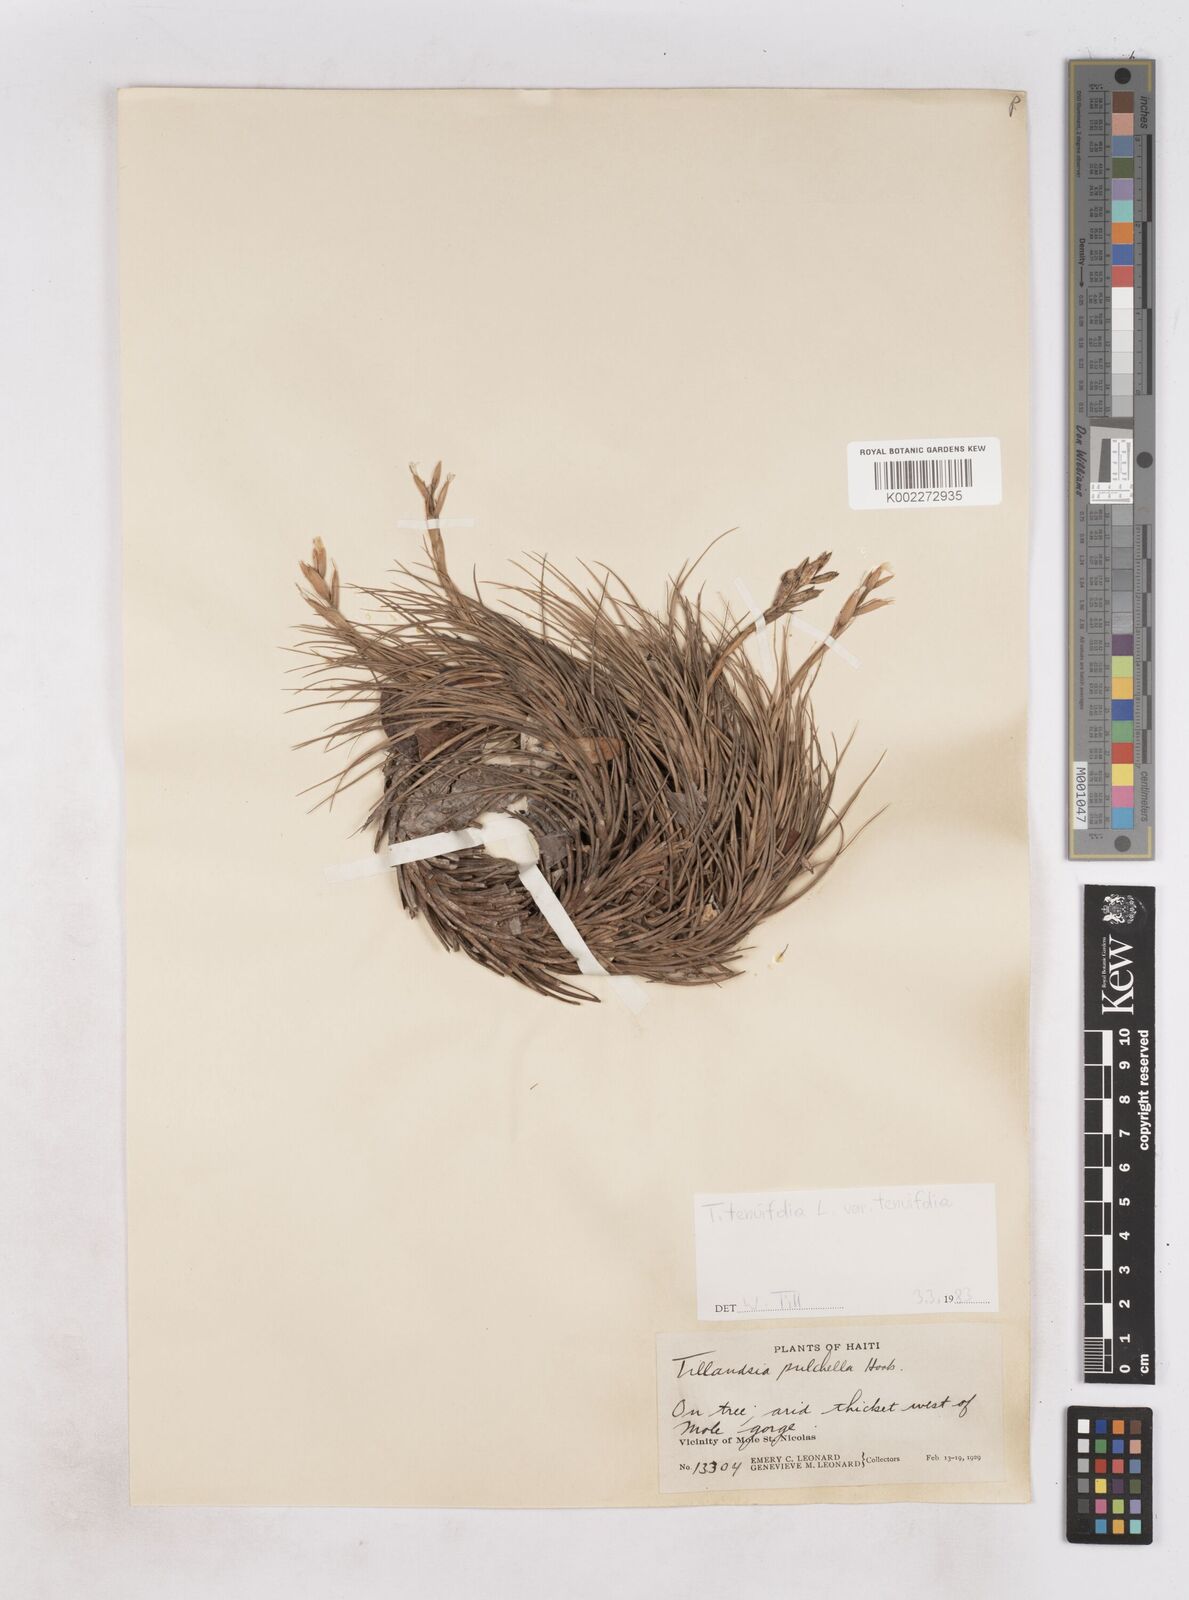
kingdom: Plantae
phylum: Tracheophyta
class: Liliopsida
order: Poales
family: Bromeliaceae
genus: Tillandsia
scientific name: Tillandsia tenuifolia
